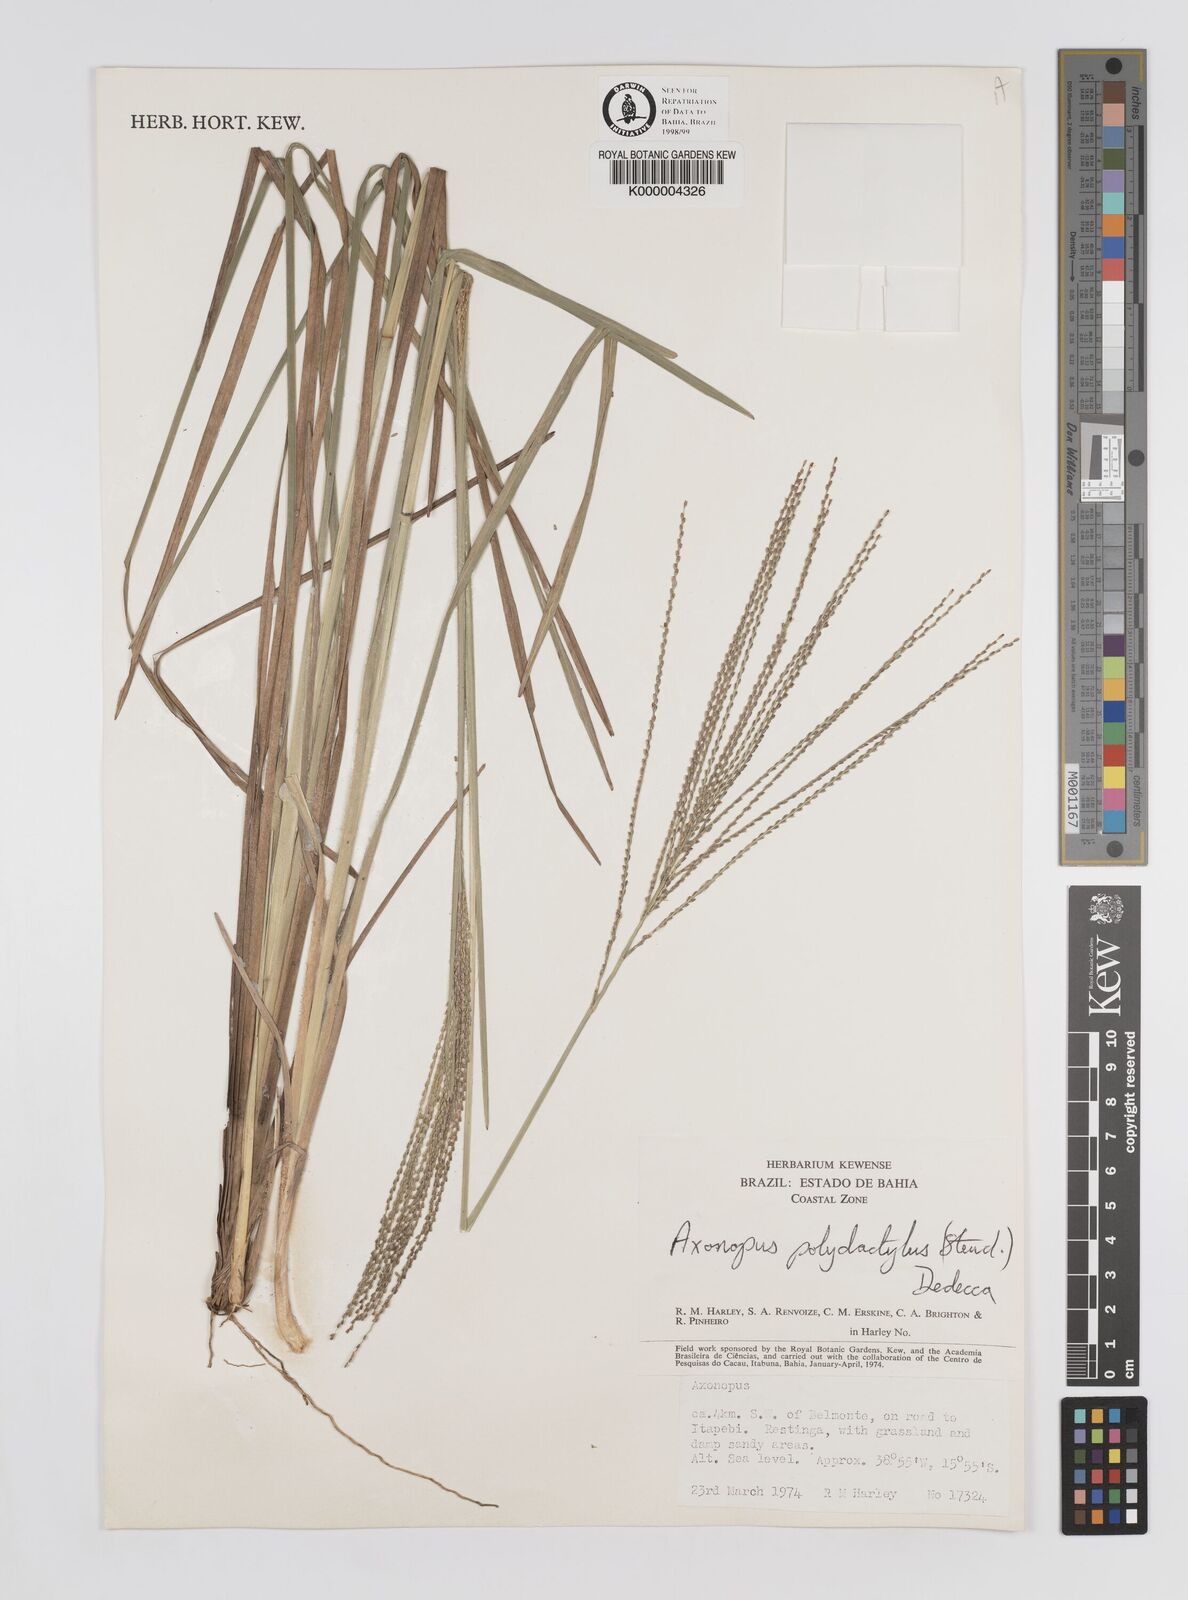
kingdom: Plantae
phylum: Tracheophyta
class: Liliopsida
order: Poales
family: Poaceae
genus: Axonopus
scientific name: Axonopus polydactylus
